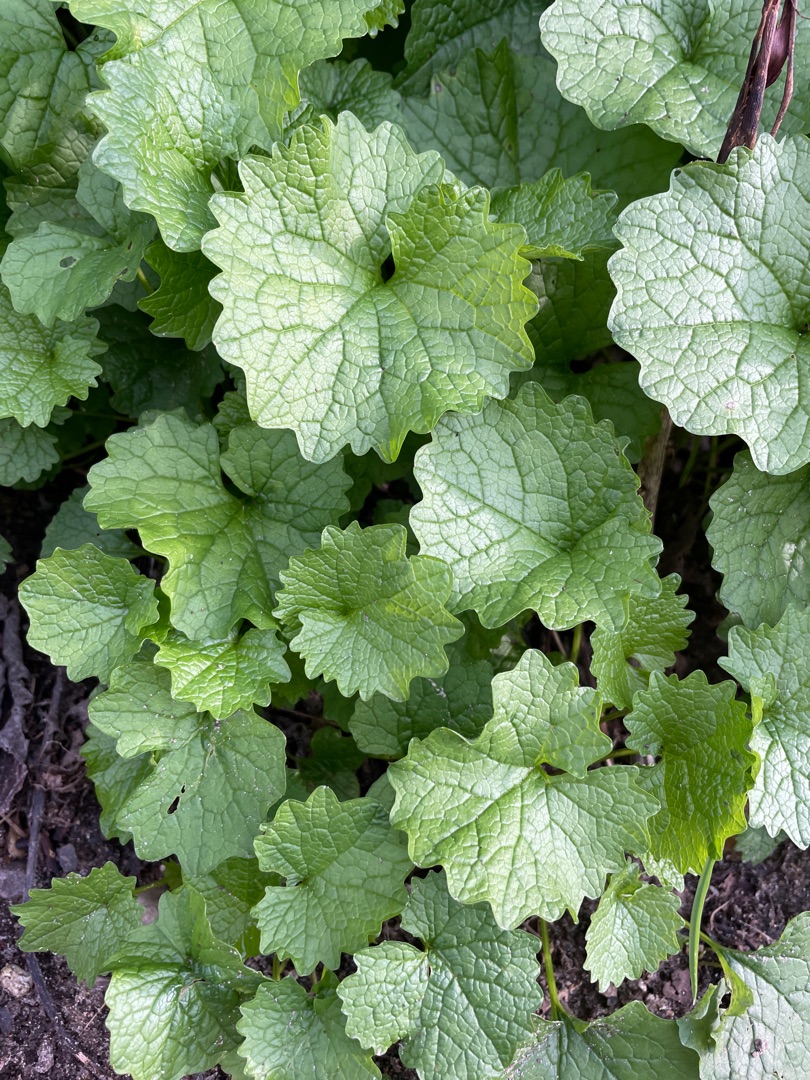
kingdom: Plantae
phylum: Tracheophyta
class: Magnoliopsida
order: Brassicales
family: Brassicaceae
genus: Alliaria
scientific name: Alliaria petiolata
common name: Løgkarse
